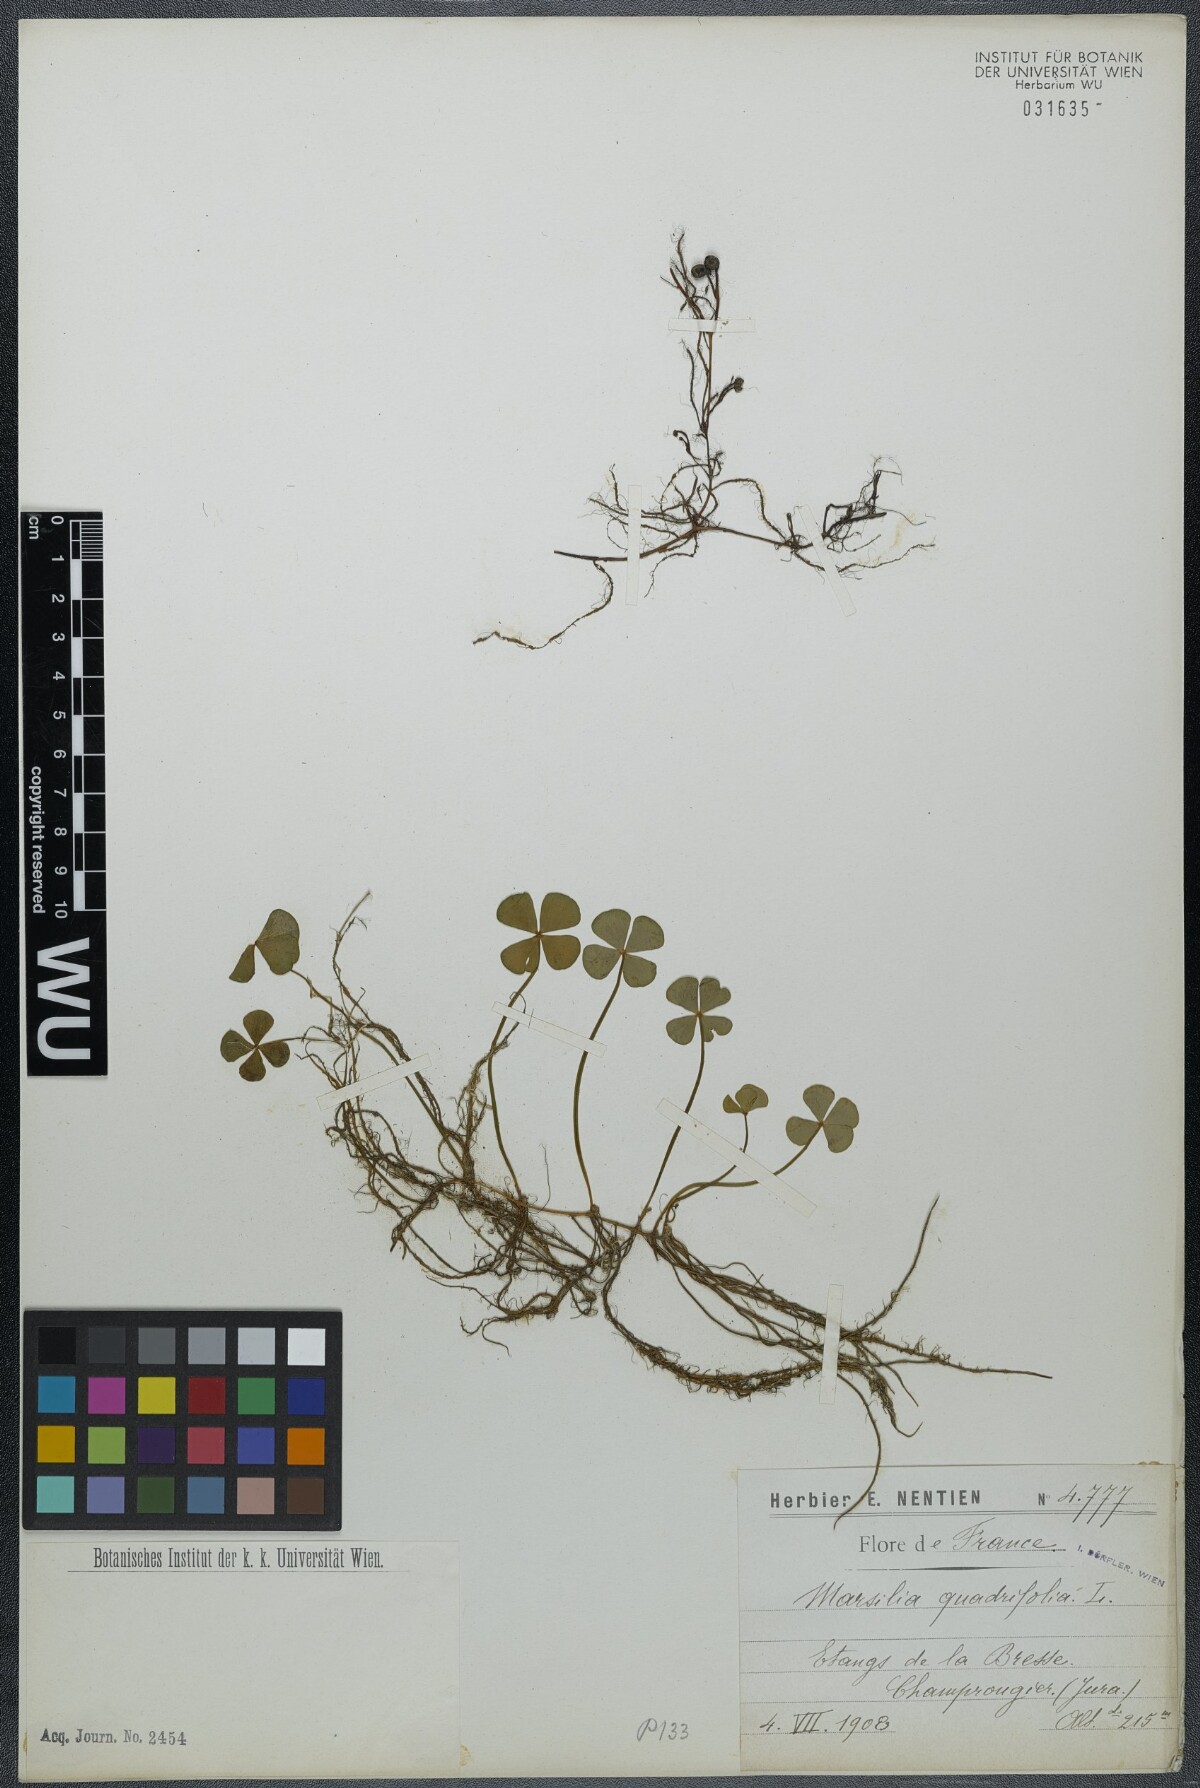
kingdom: Plantae
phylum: Tracheophyta
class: Polypodiopsida
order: Salviniales
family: Marsileaceae
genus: Marsilea
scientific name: Marsilea quadrifolia
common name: Water shamrock
